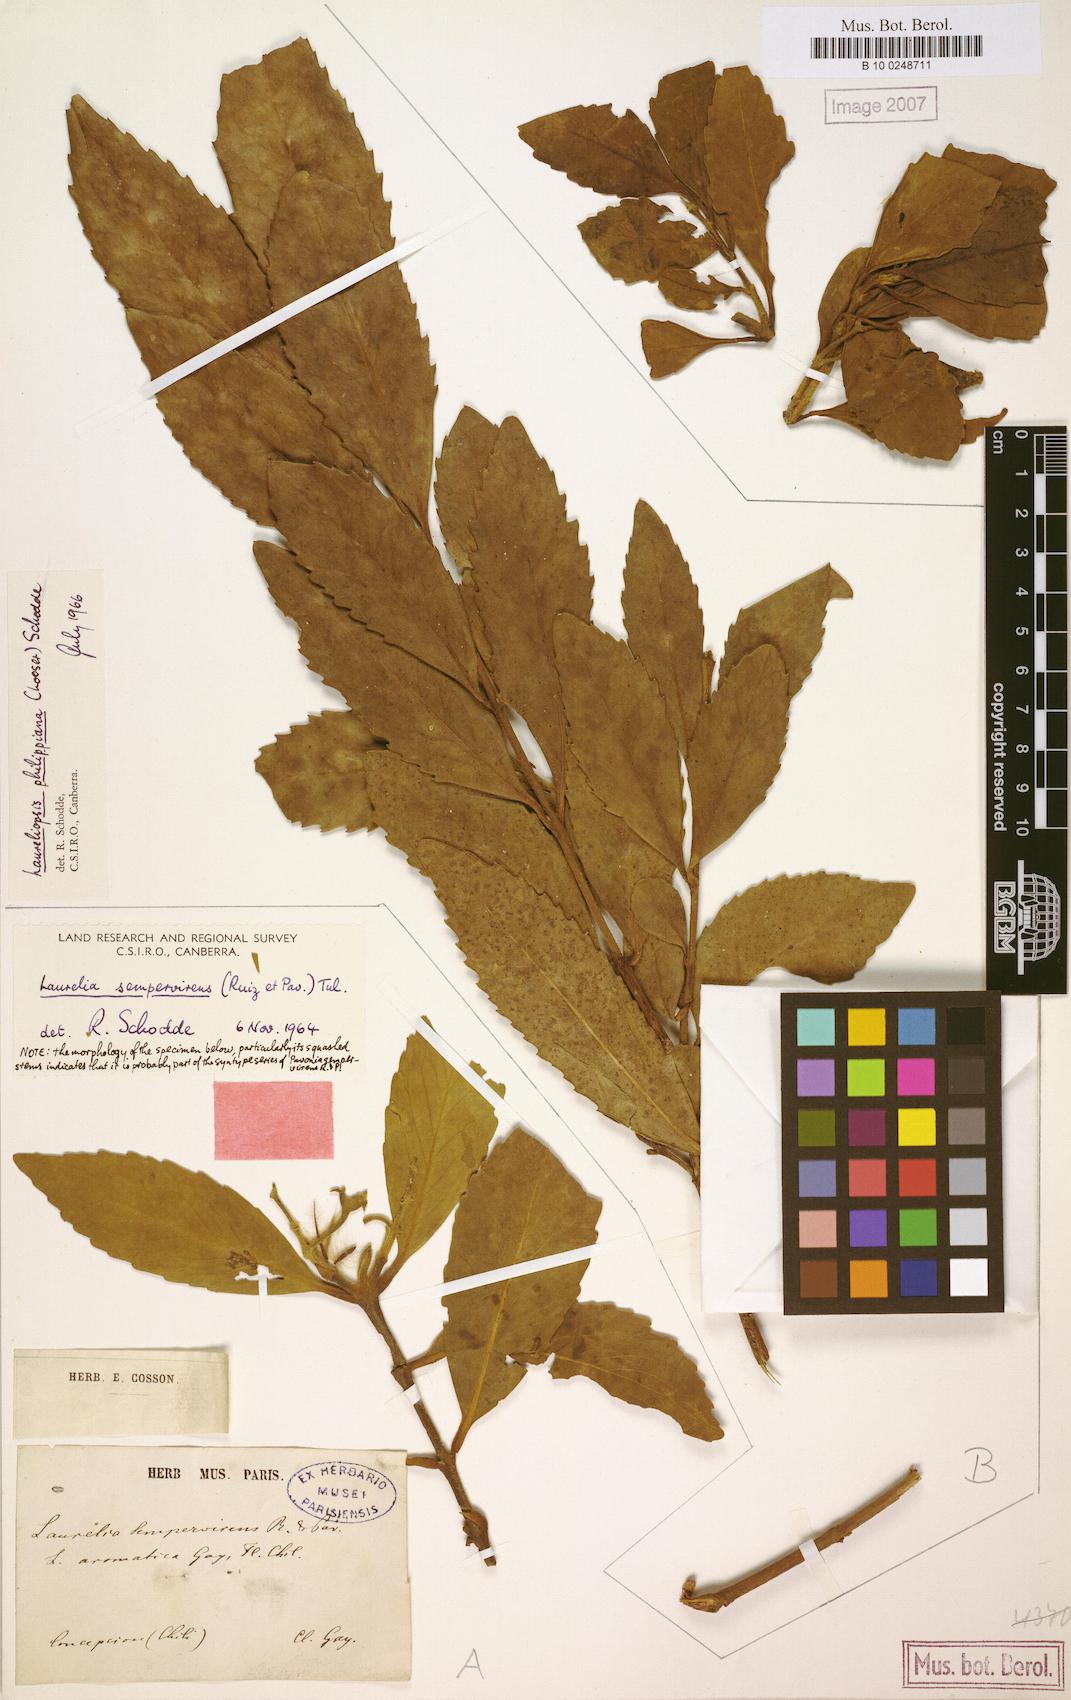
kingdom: Plantae
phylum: Tracheophyta
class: Magnoliopsida
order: Laurales
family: Atherospermataceae
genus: Laureliopsis
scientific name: Laureliopsis philippiana
